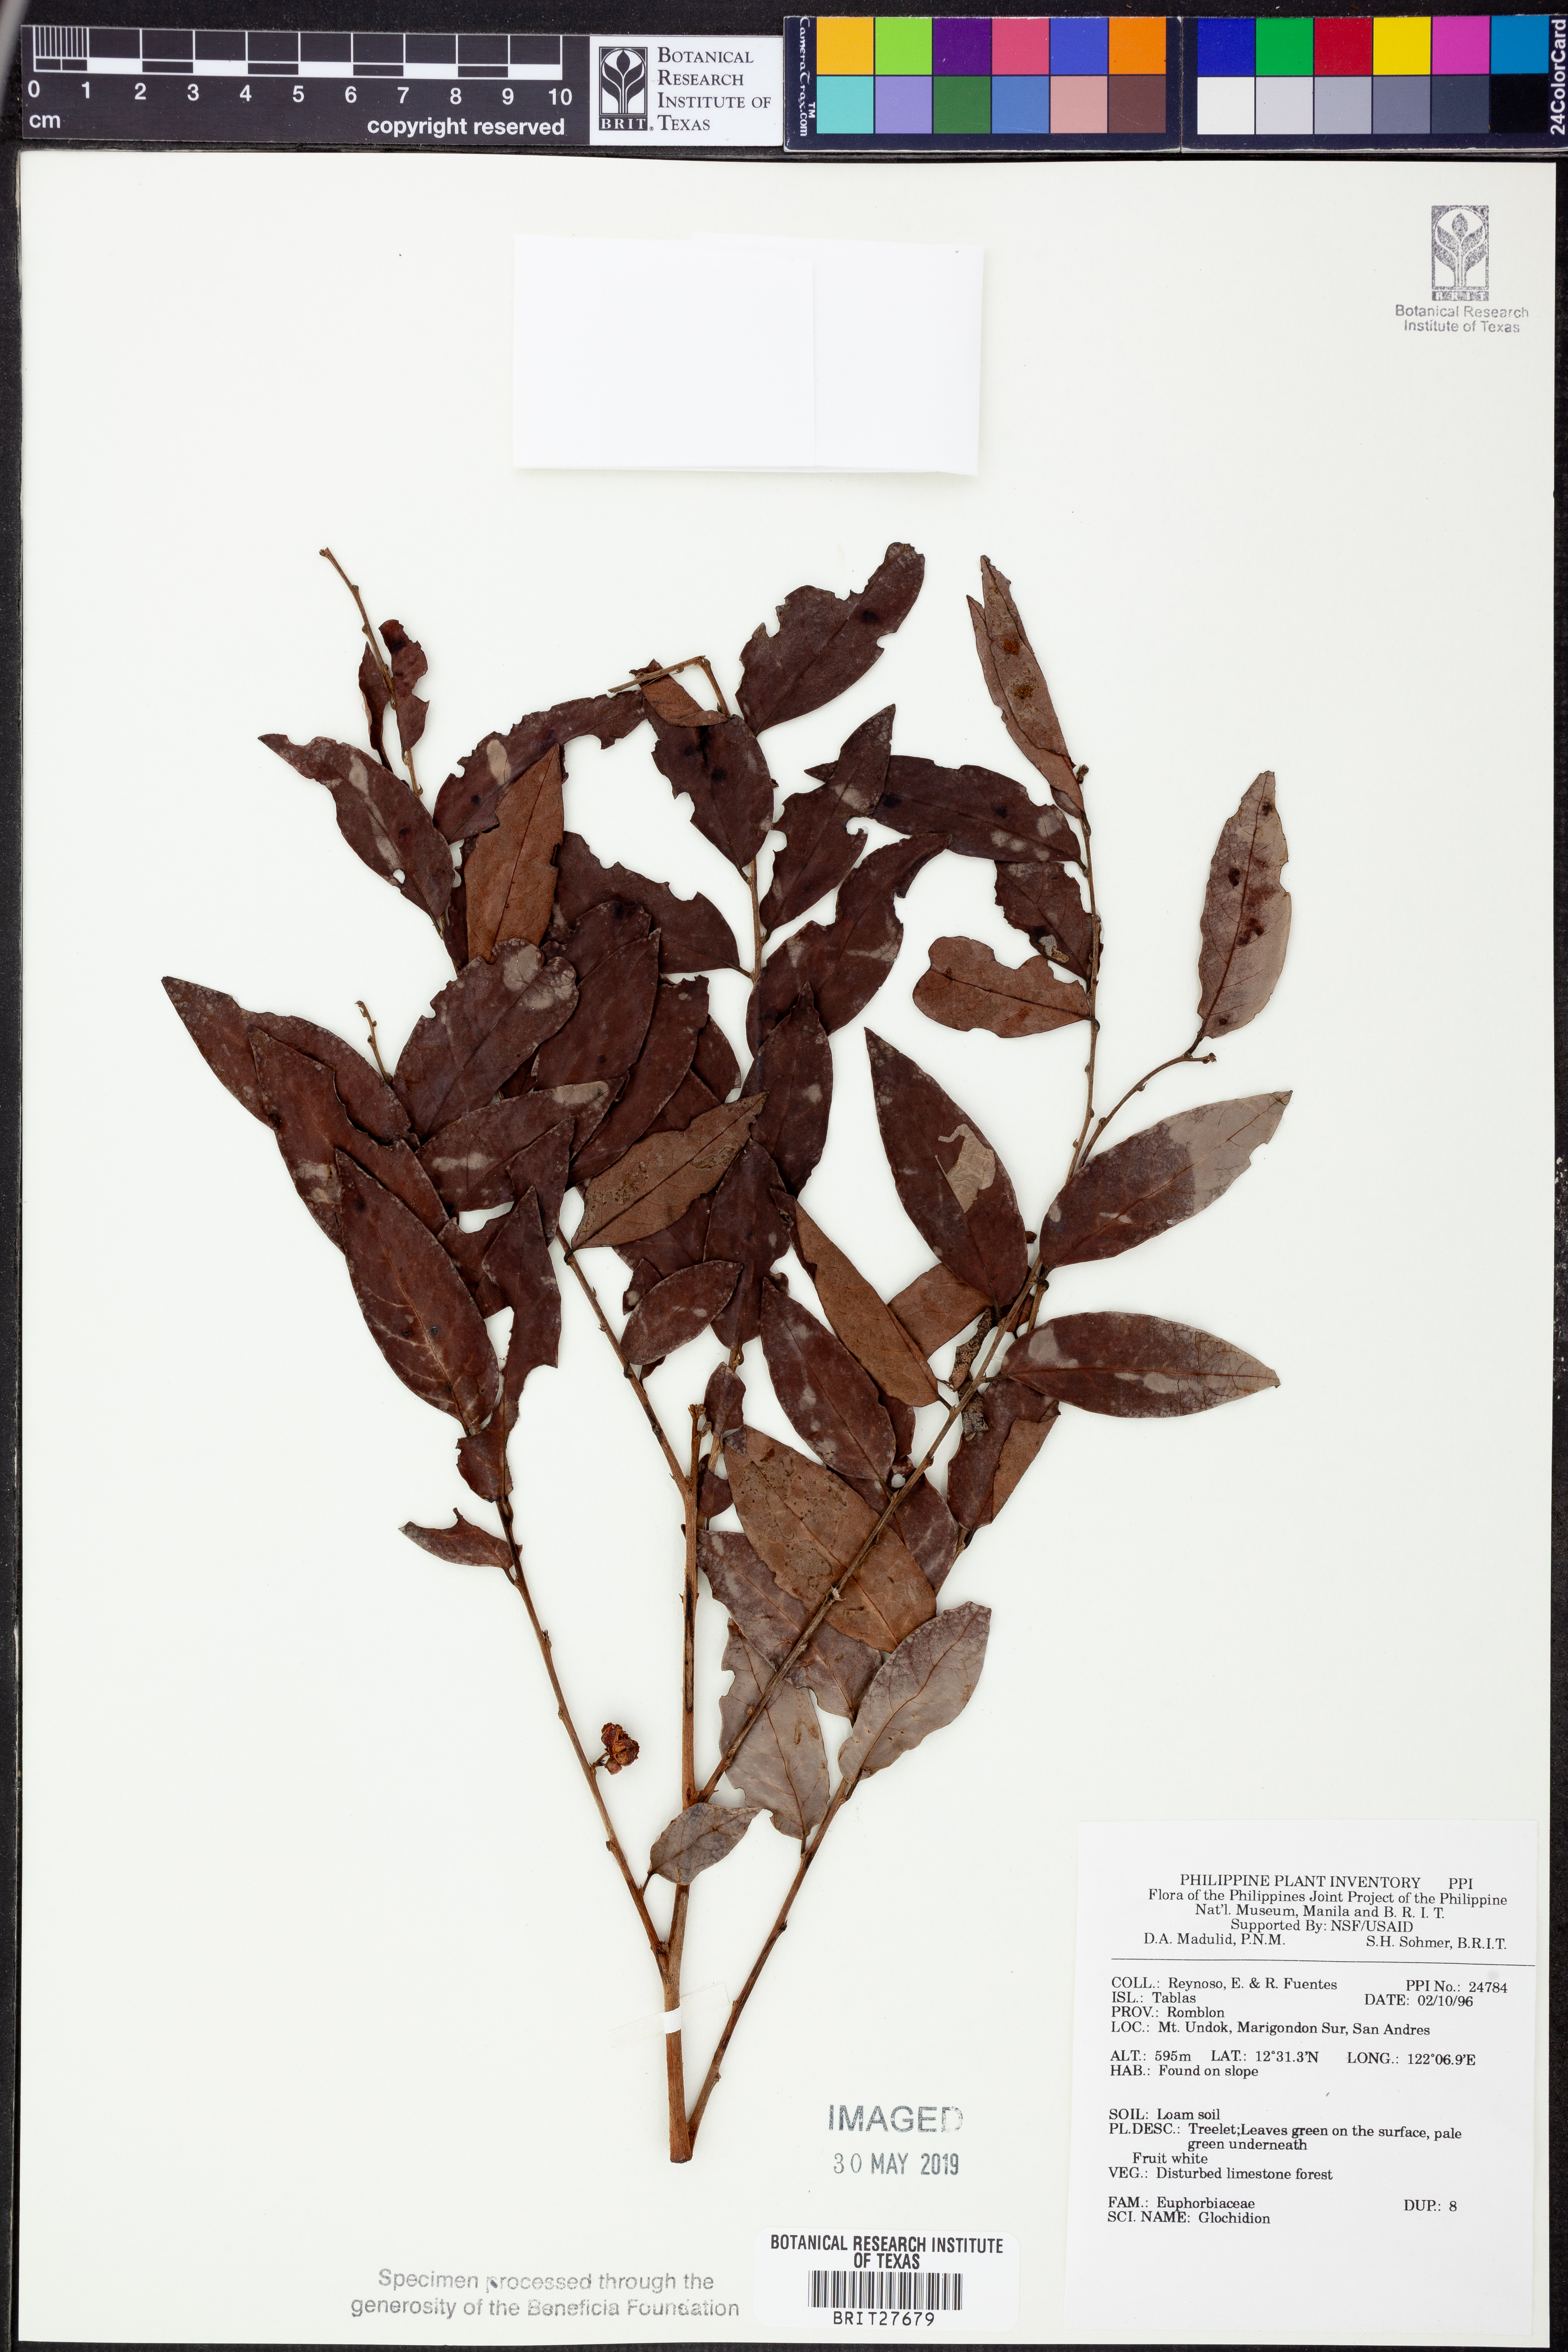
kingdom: Plantae
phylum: Tracheophyta
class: Magnoliopsida
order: Malpighiales
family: Phyllanthaceae
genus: Glochidion
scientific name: Glochidion
